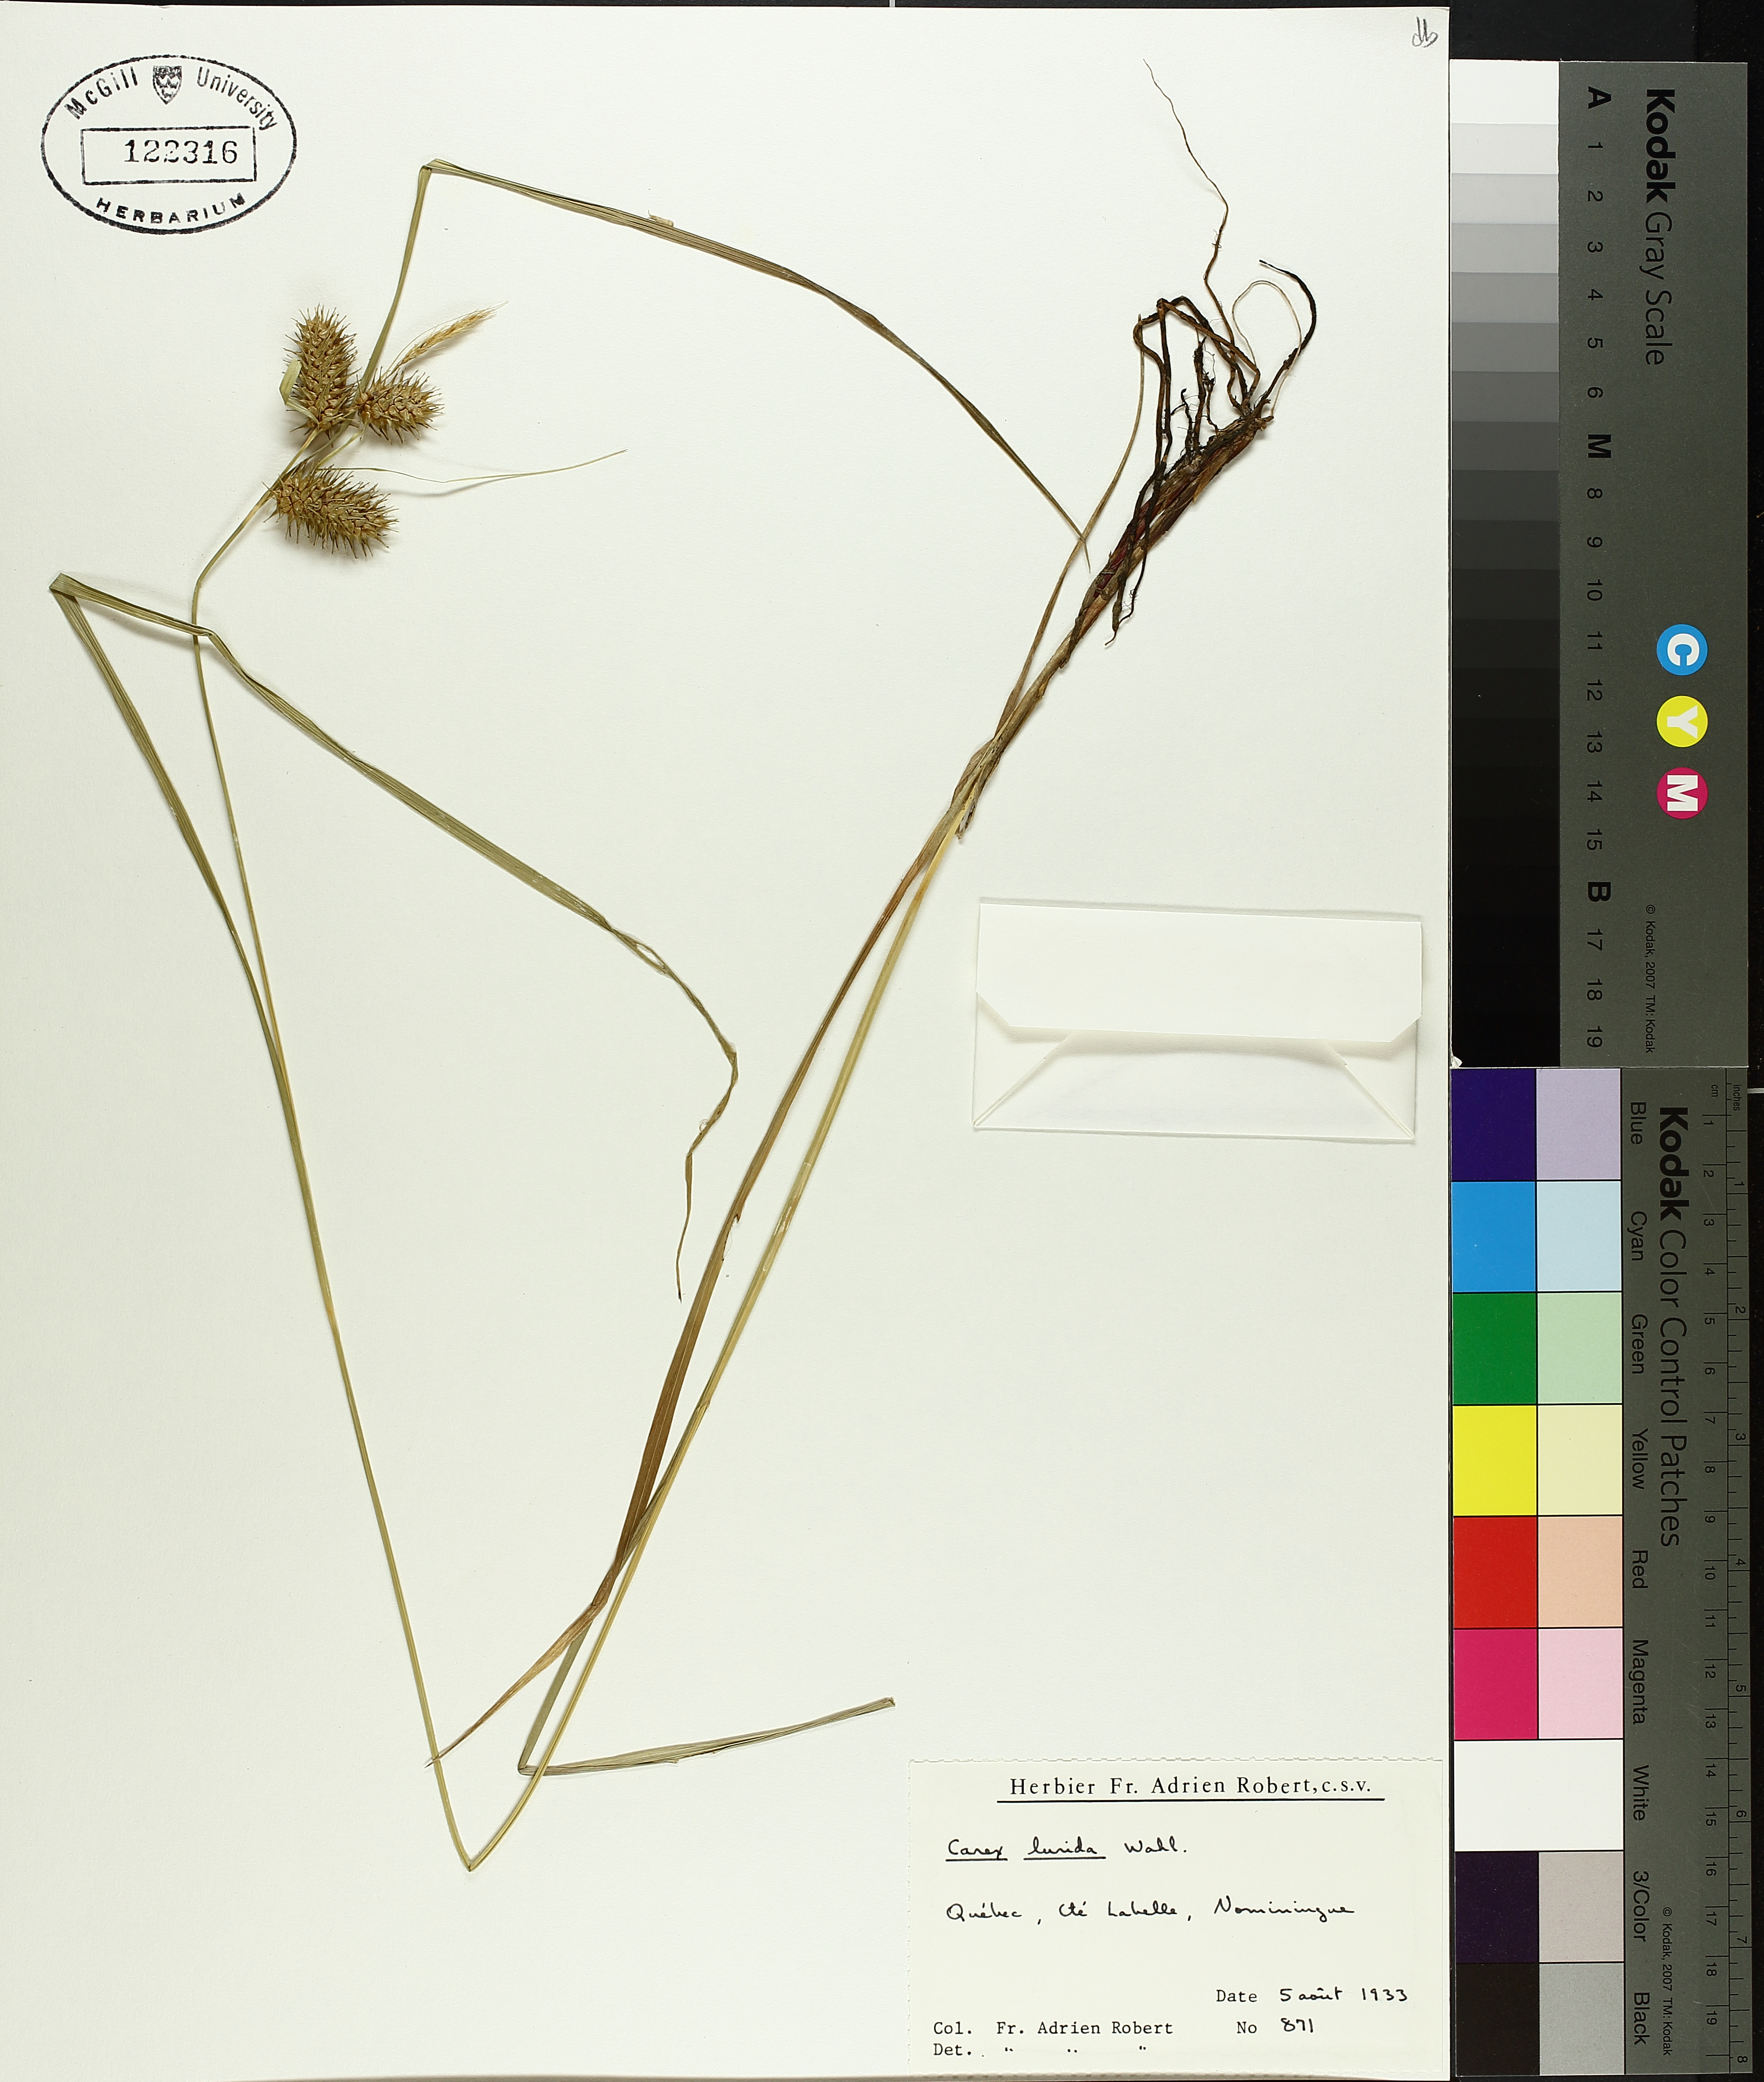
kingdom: Plantae
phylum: Tracheophyta
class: Liliopsida
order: Poales
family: Cyperaceae
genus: Carex
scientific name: Carex lurida
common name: Sallow sedge
